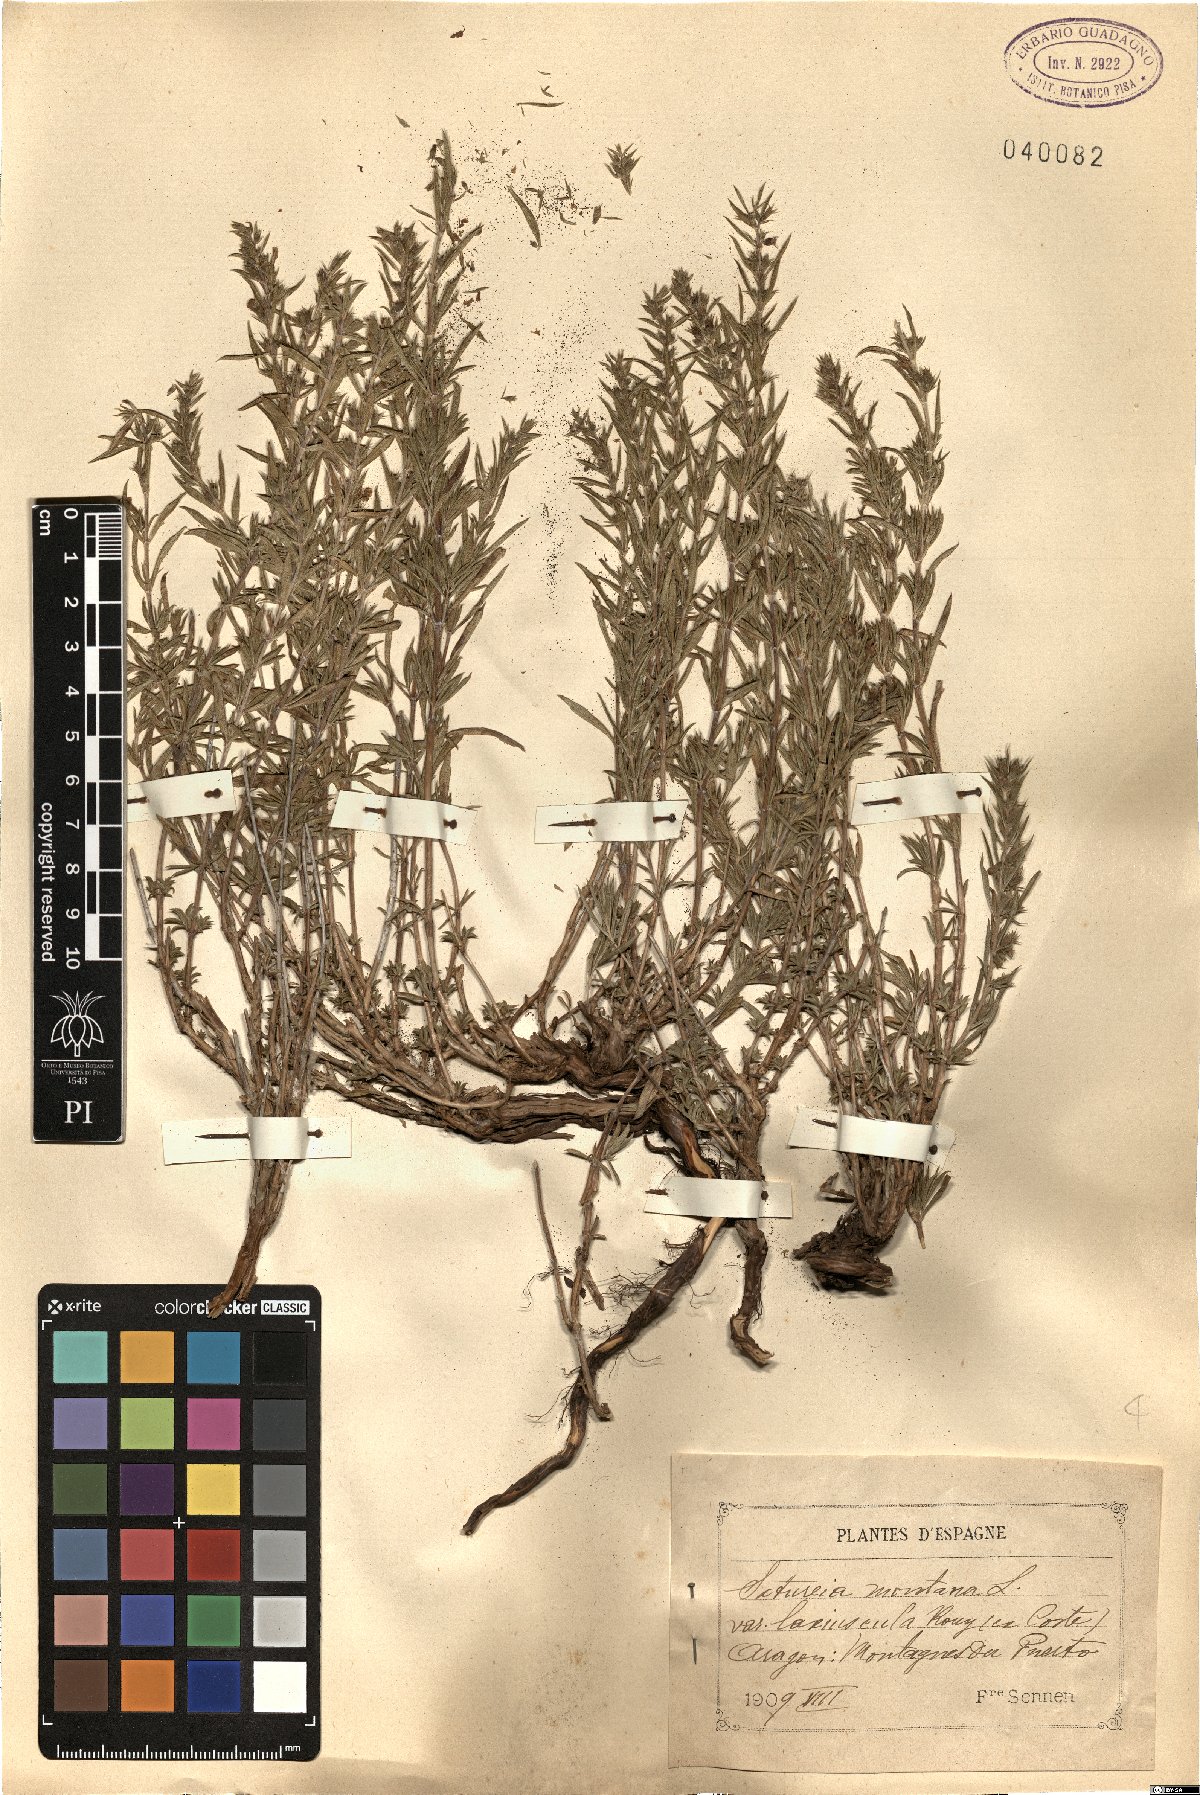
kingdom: Plantae
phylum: Tracheophyta
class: Magnoliopsida
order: Lamiales
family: Lamiaceae
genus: Satureja
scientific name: Satureja montana
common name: Winter savory
